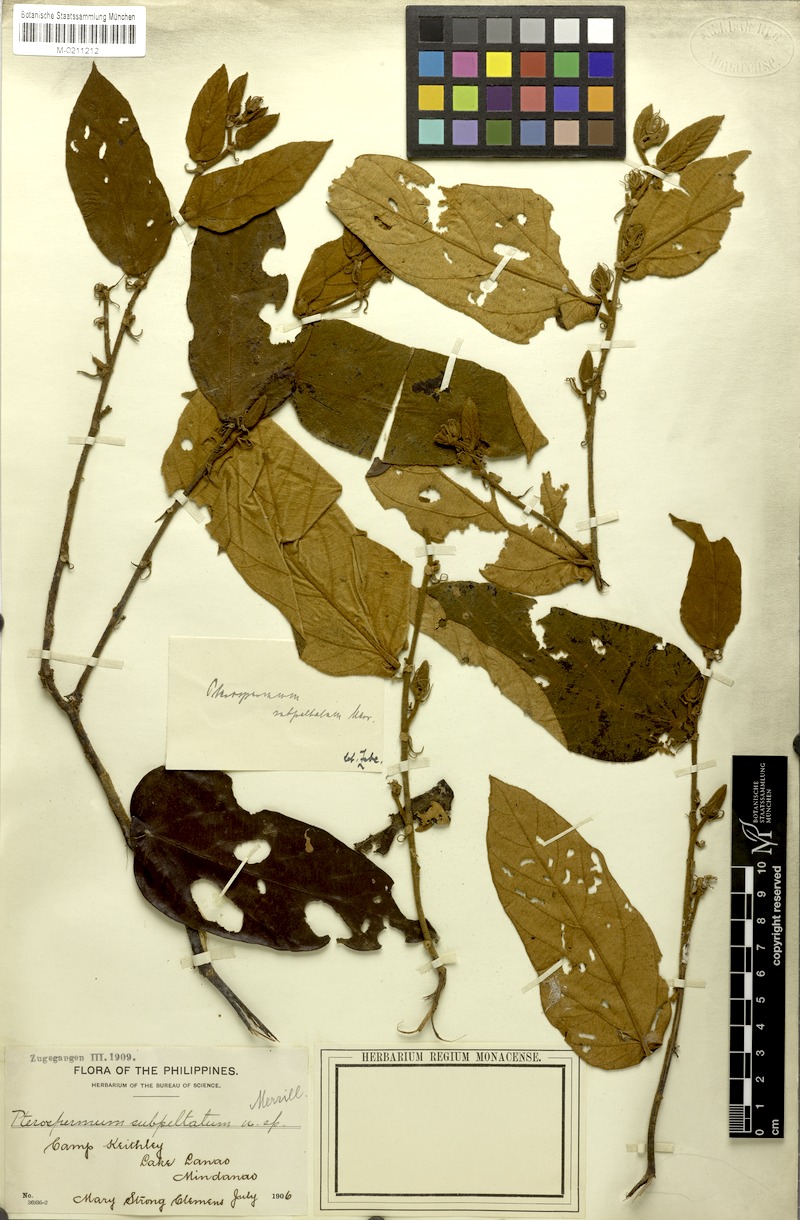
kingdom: Plantae
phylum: Tracheophyta
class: Magnoliopsida
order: Malvales
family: Malvaceae
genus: Pterospermum
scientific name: Pterospermum subpeltatum
